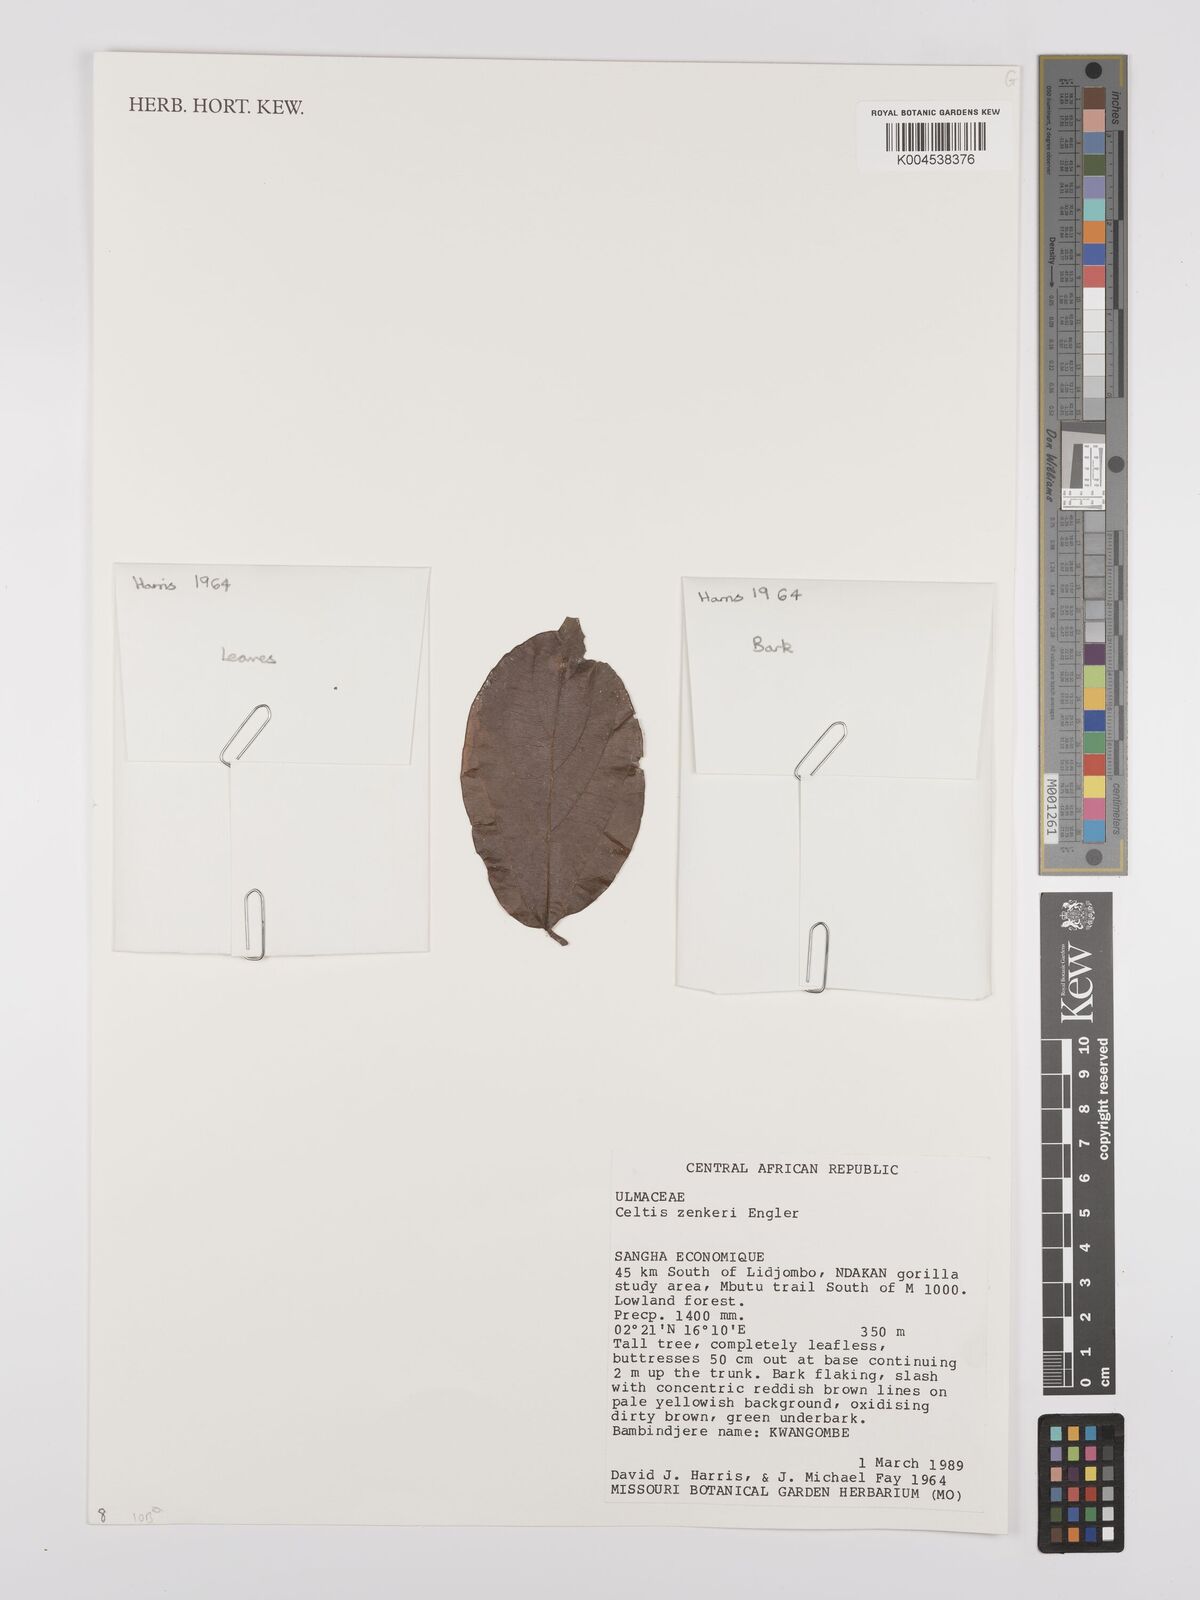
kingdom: Plantae
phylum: Tracheophyta
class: Magnoliopsida
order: Rosales
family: Cannabaceae
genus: Celtis
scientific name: Celtis zenkeri
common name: African celtis
